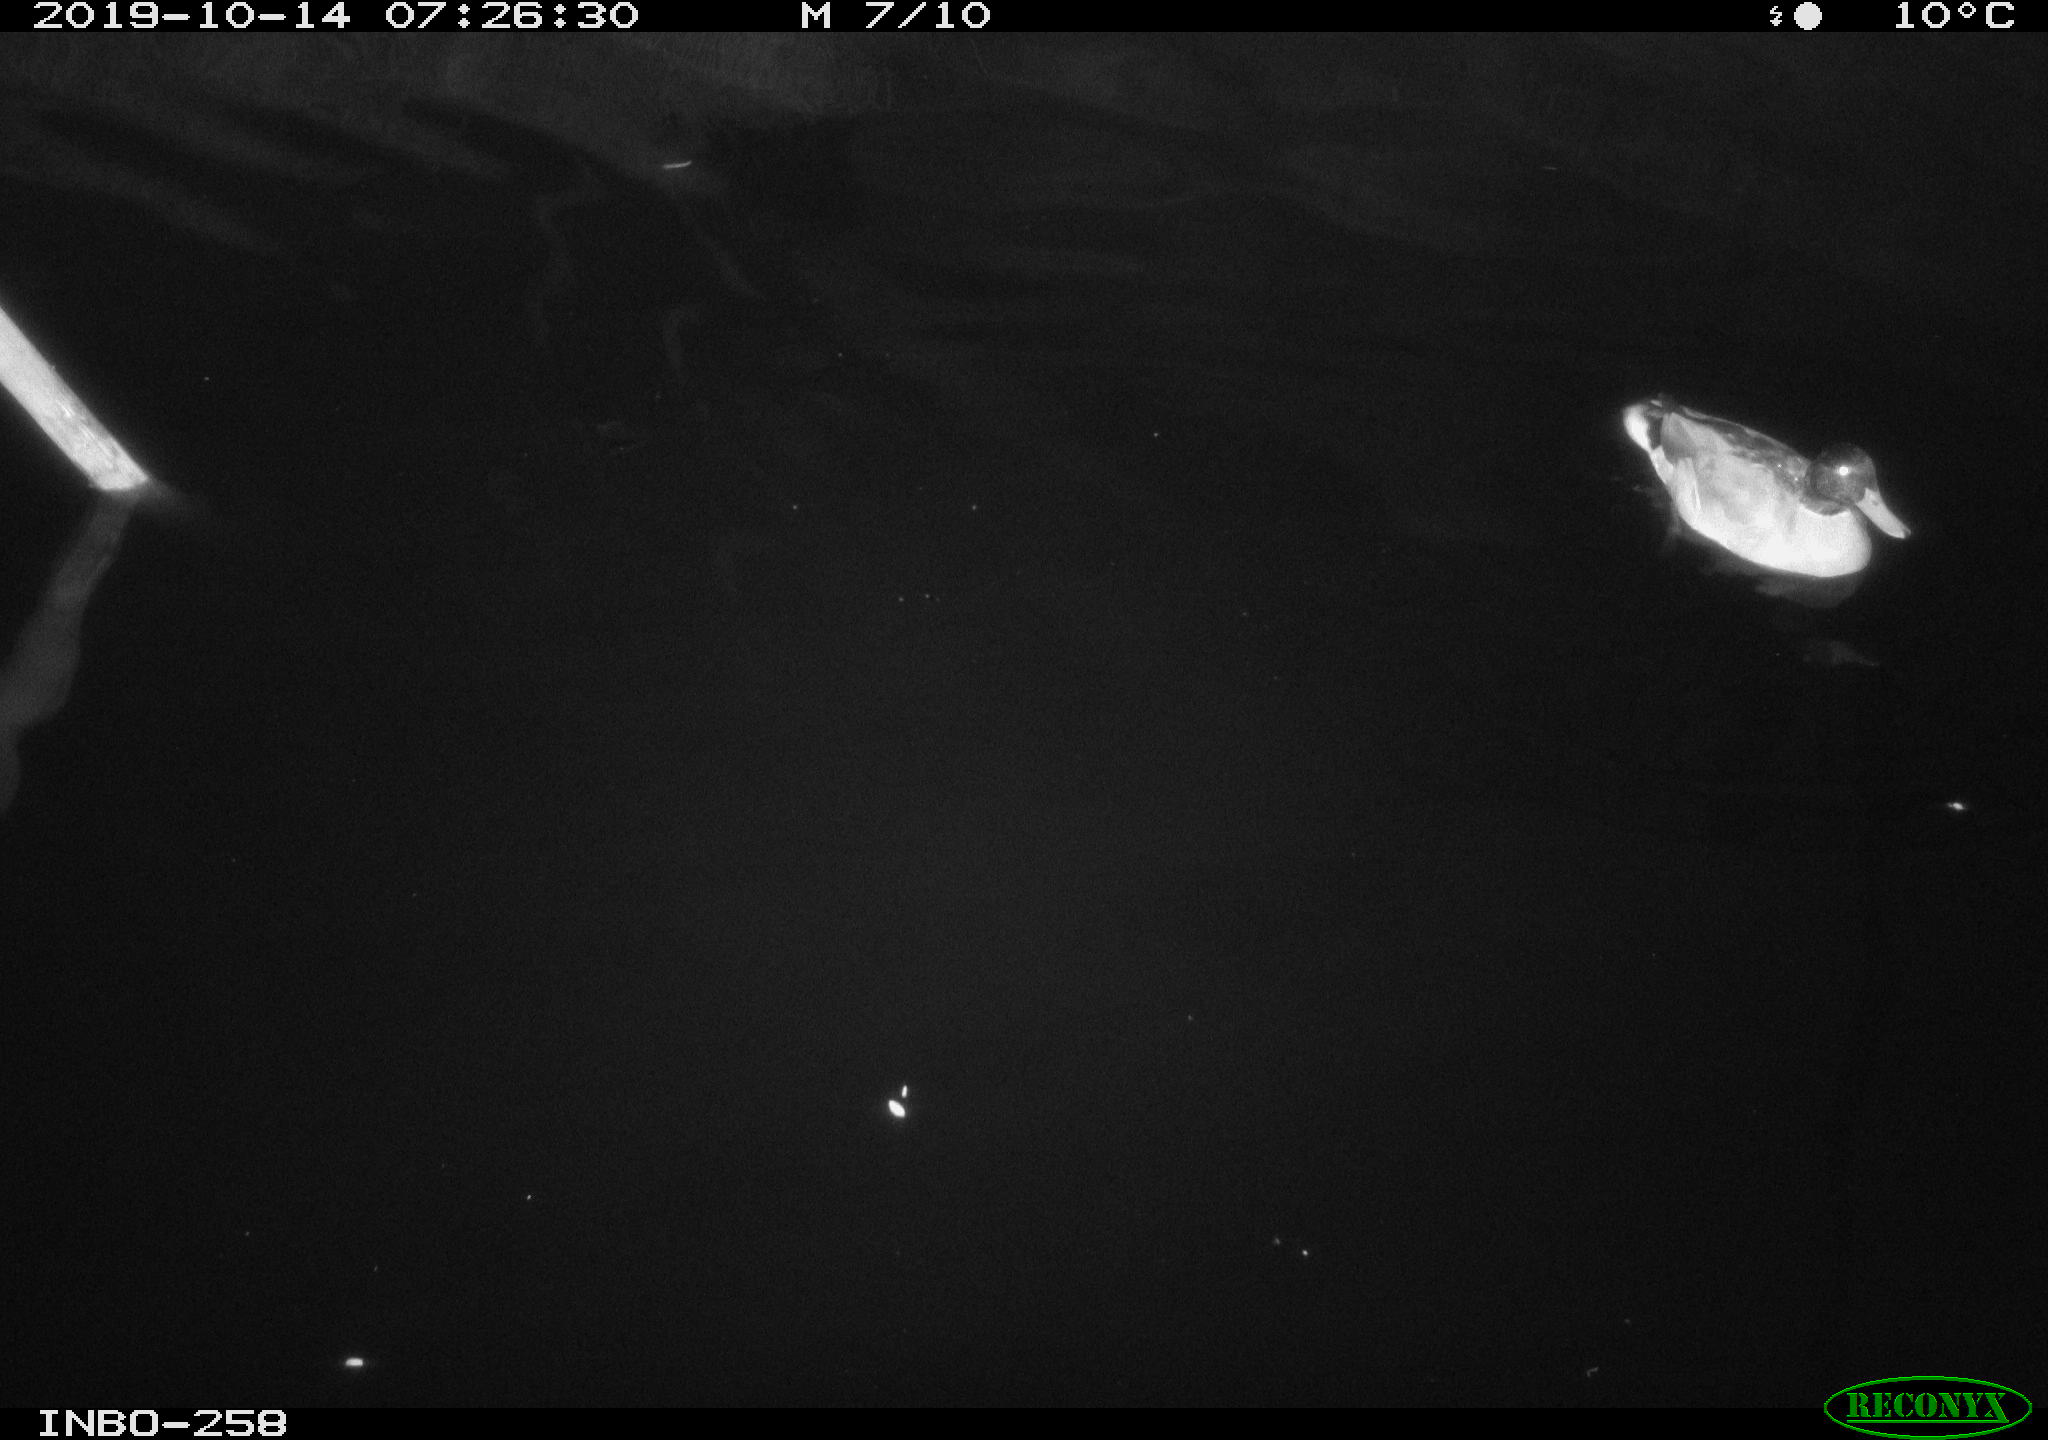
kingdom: Animalia
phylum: Chordata
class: Aves
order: Gruiformes
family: Rallidae
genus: Gallinula
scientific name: Gallinula chloropus
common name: Common moorhen
